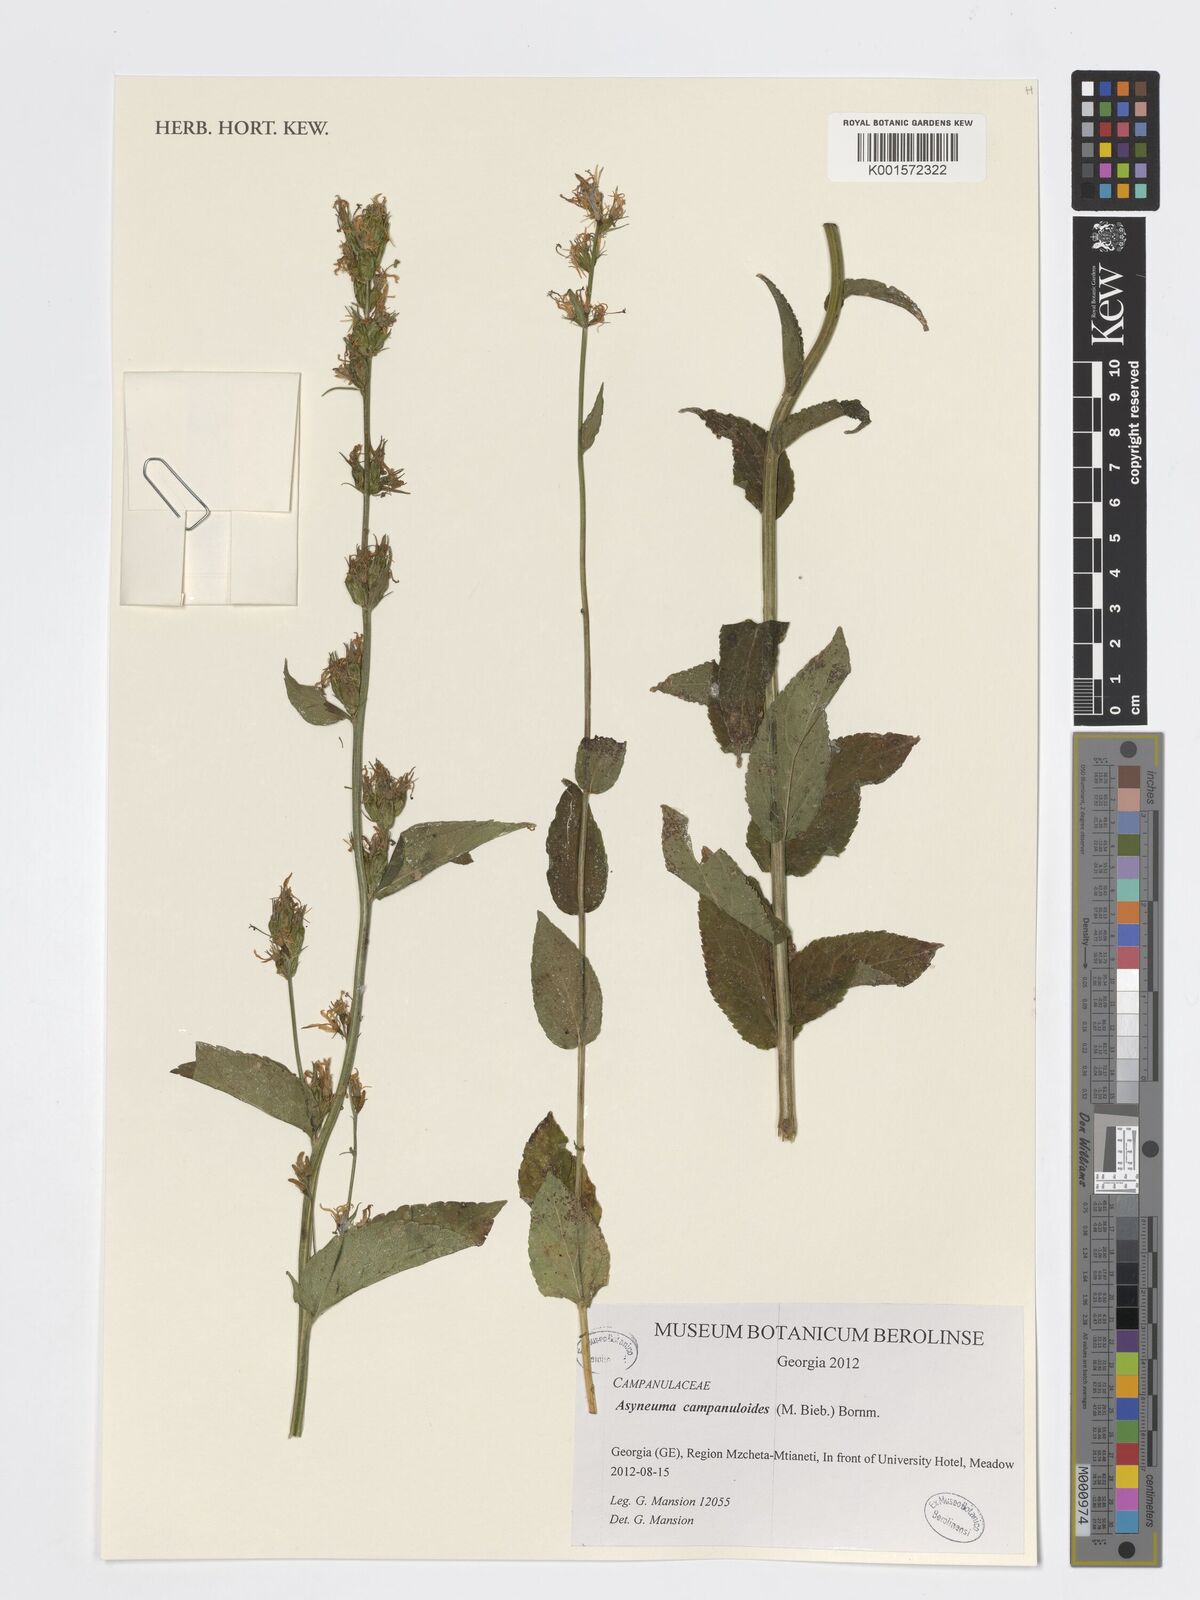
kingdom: Plantae
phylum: Tracheophyta
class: Magnoliopsida
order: Asterales
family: Campanulaceae
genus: Asyneuma
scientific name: Asyneuma campanuloides
